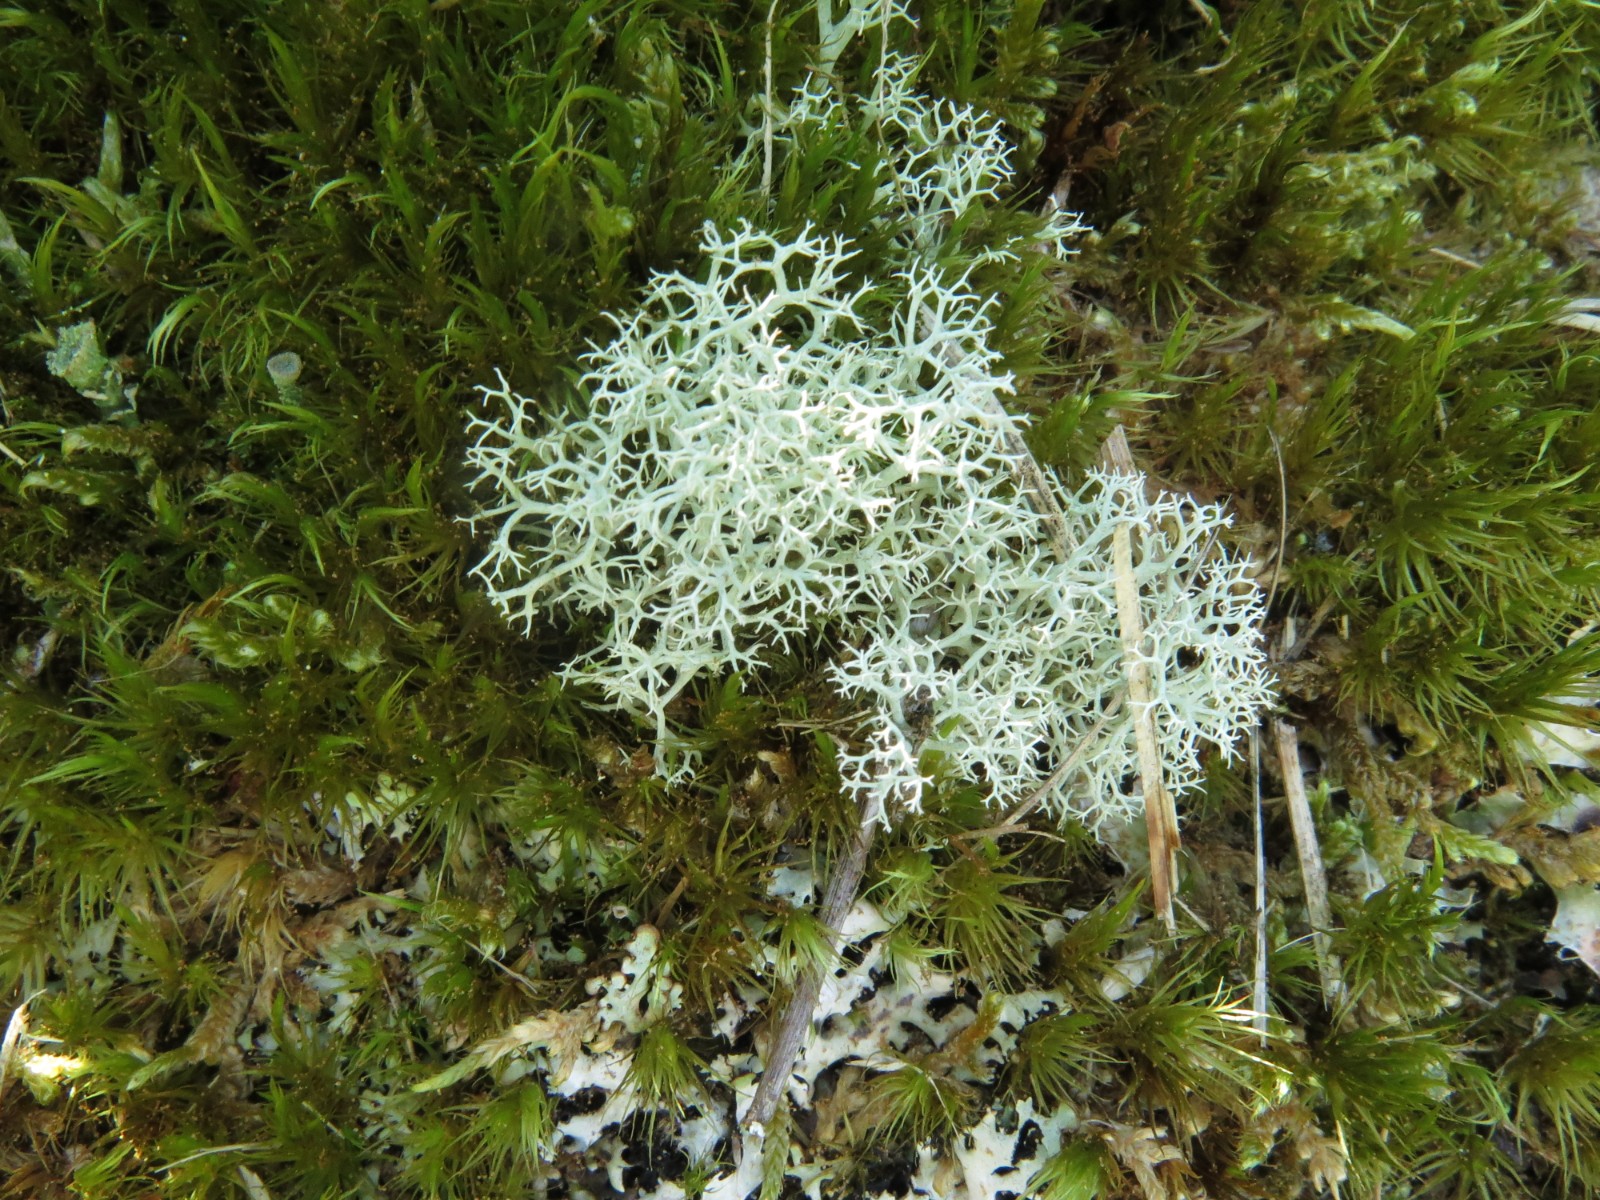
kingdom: Fungi
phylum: Ascomycota
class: Lecanoromycetes
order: Lecanorales
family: Cladoniaceae
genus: Cladonia
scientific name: Cladonia portentosa
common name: hede-rensdyrlav
